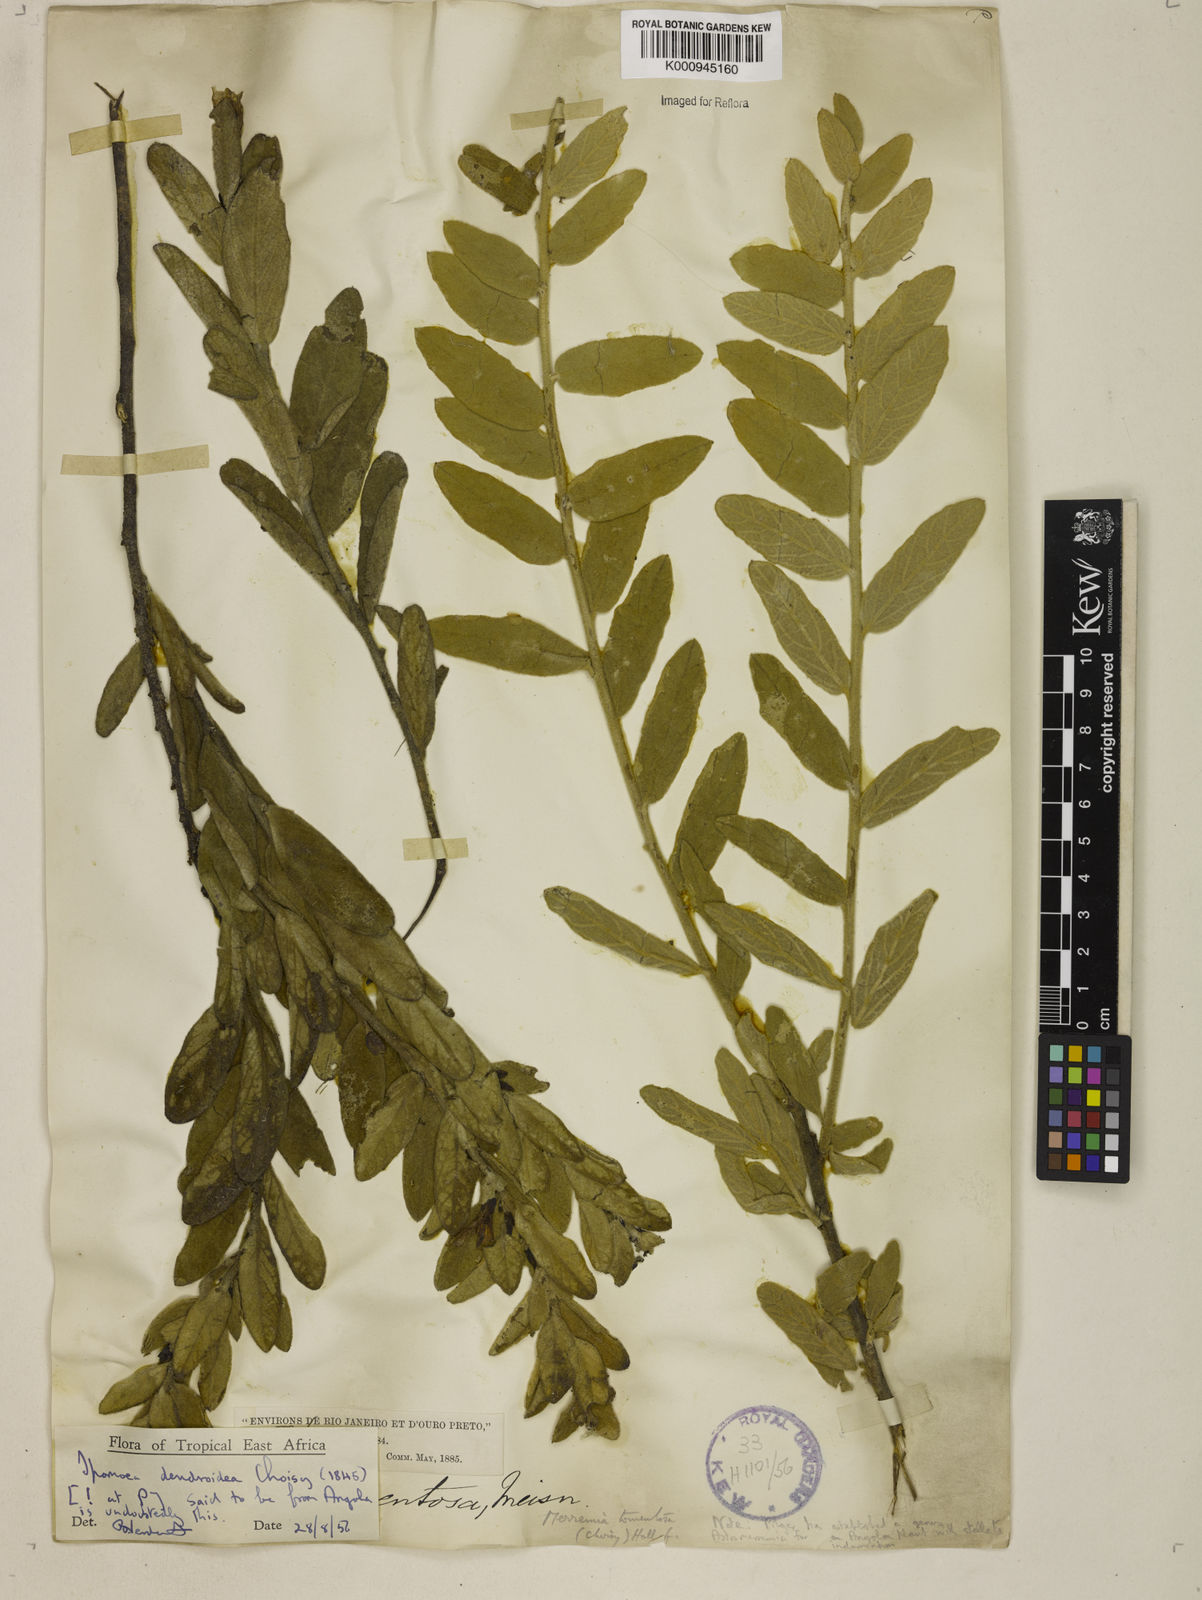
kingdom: Plantae
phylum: Tracheophyta
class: Magnoliopsida
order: Solanales
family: Convolvulaceae
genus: Distimake
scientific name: Distimake tomentosus
